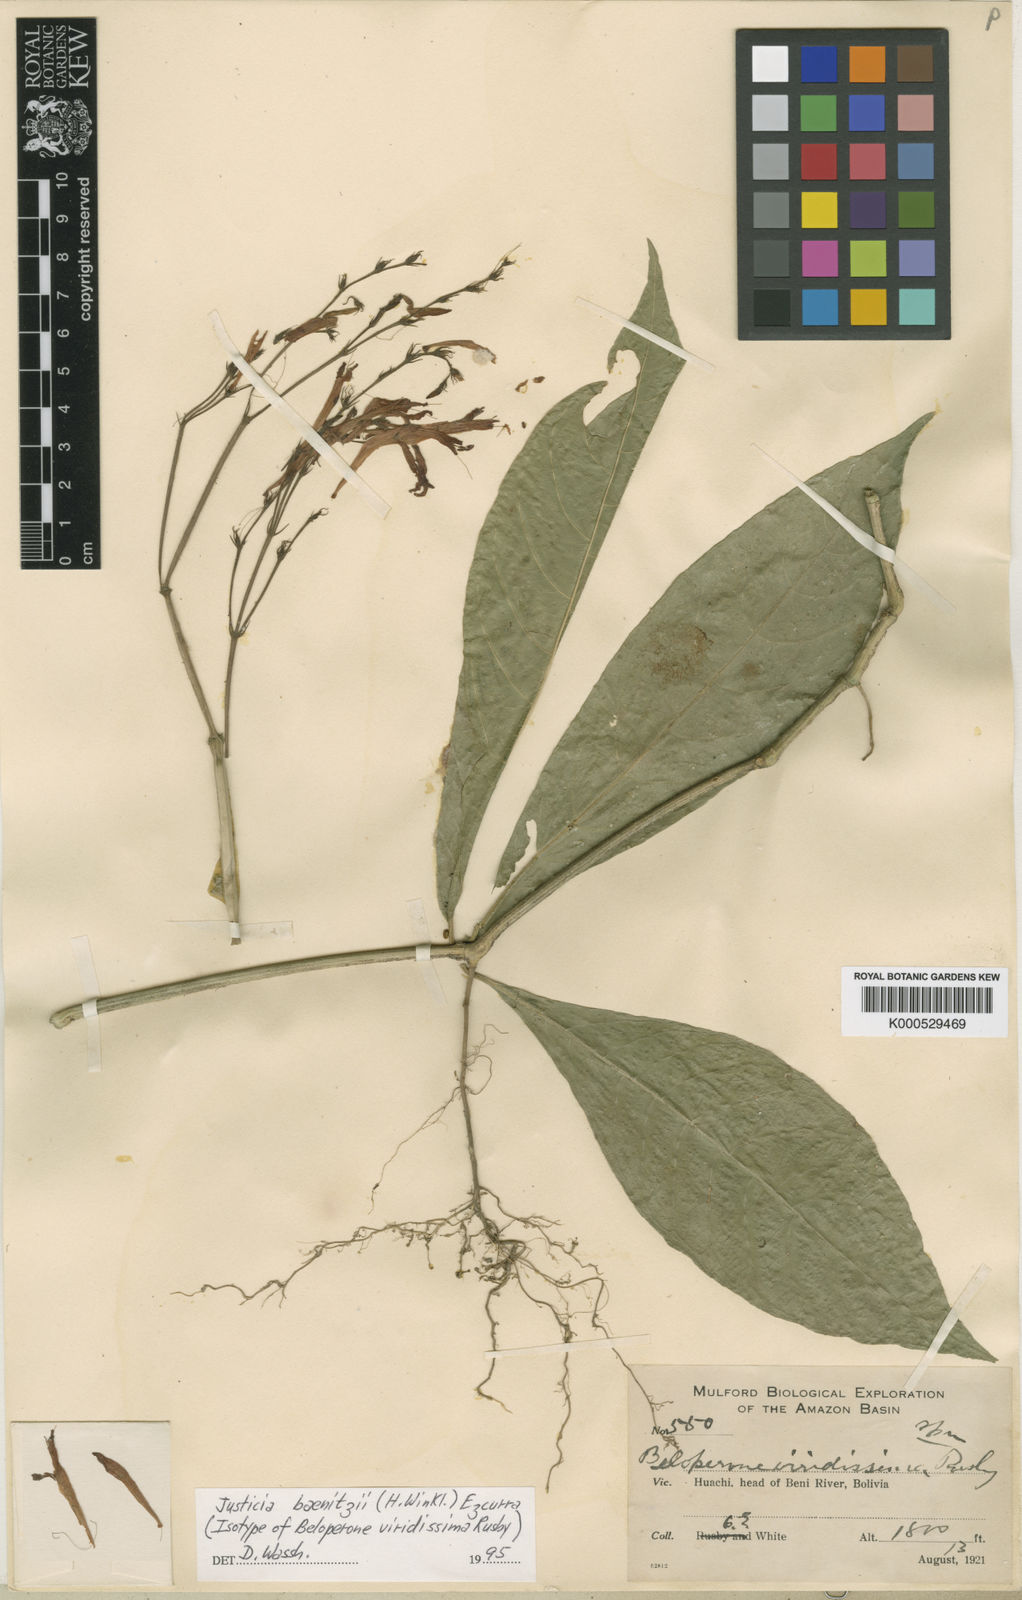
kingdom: Plantae
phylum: Tracheophyta
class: Magnoliopsida
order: Lamiales
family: Acanthaceae
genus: Justicia
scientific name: Justicia tenuistachys
